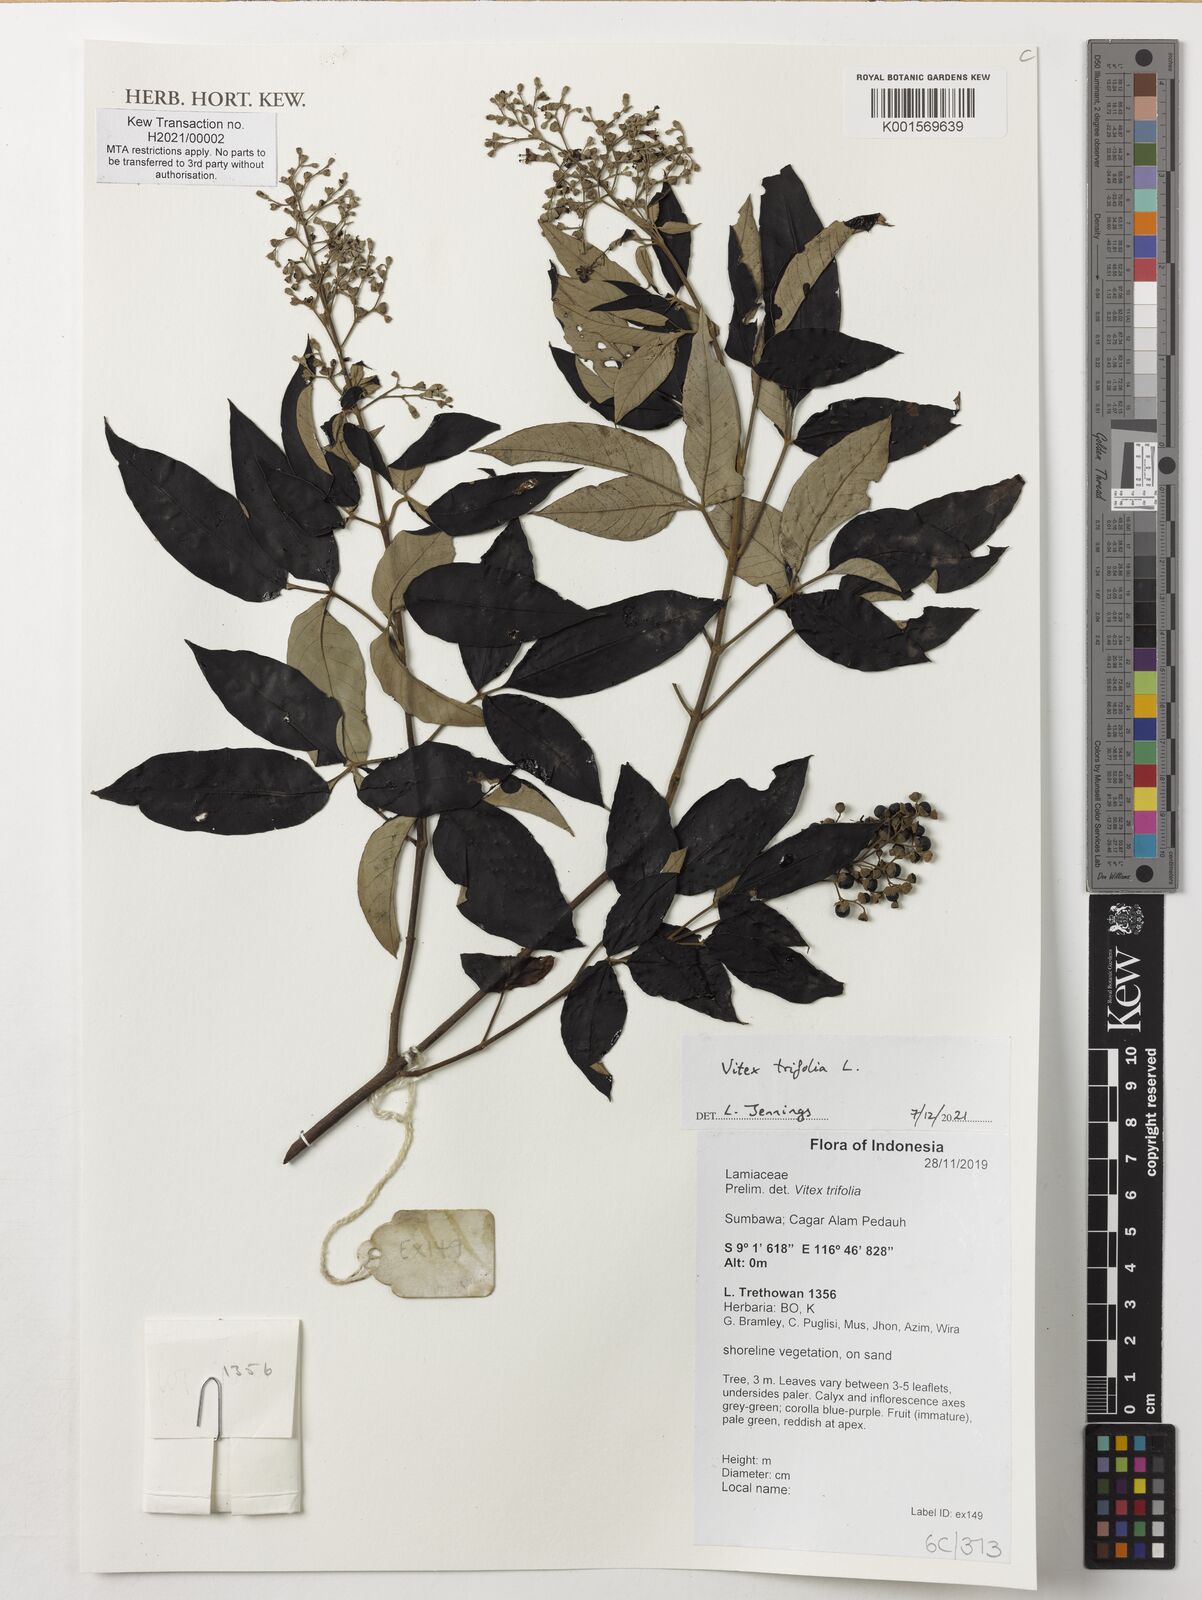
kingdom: Plantae
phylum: Tracheophyta
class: Magnoliopsida
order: Lamiales
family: Lamiaceae
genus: Vitex
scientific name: Vitex trifolia
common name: Simpleleaf chastetree
